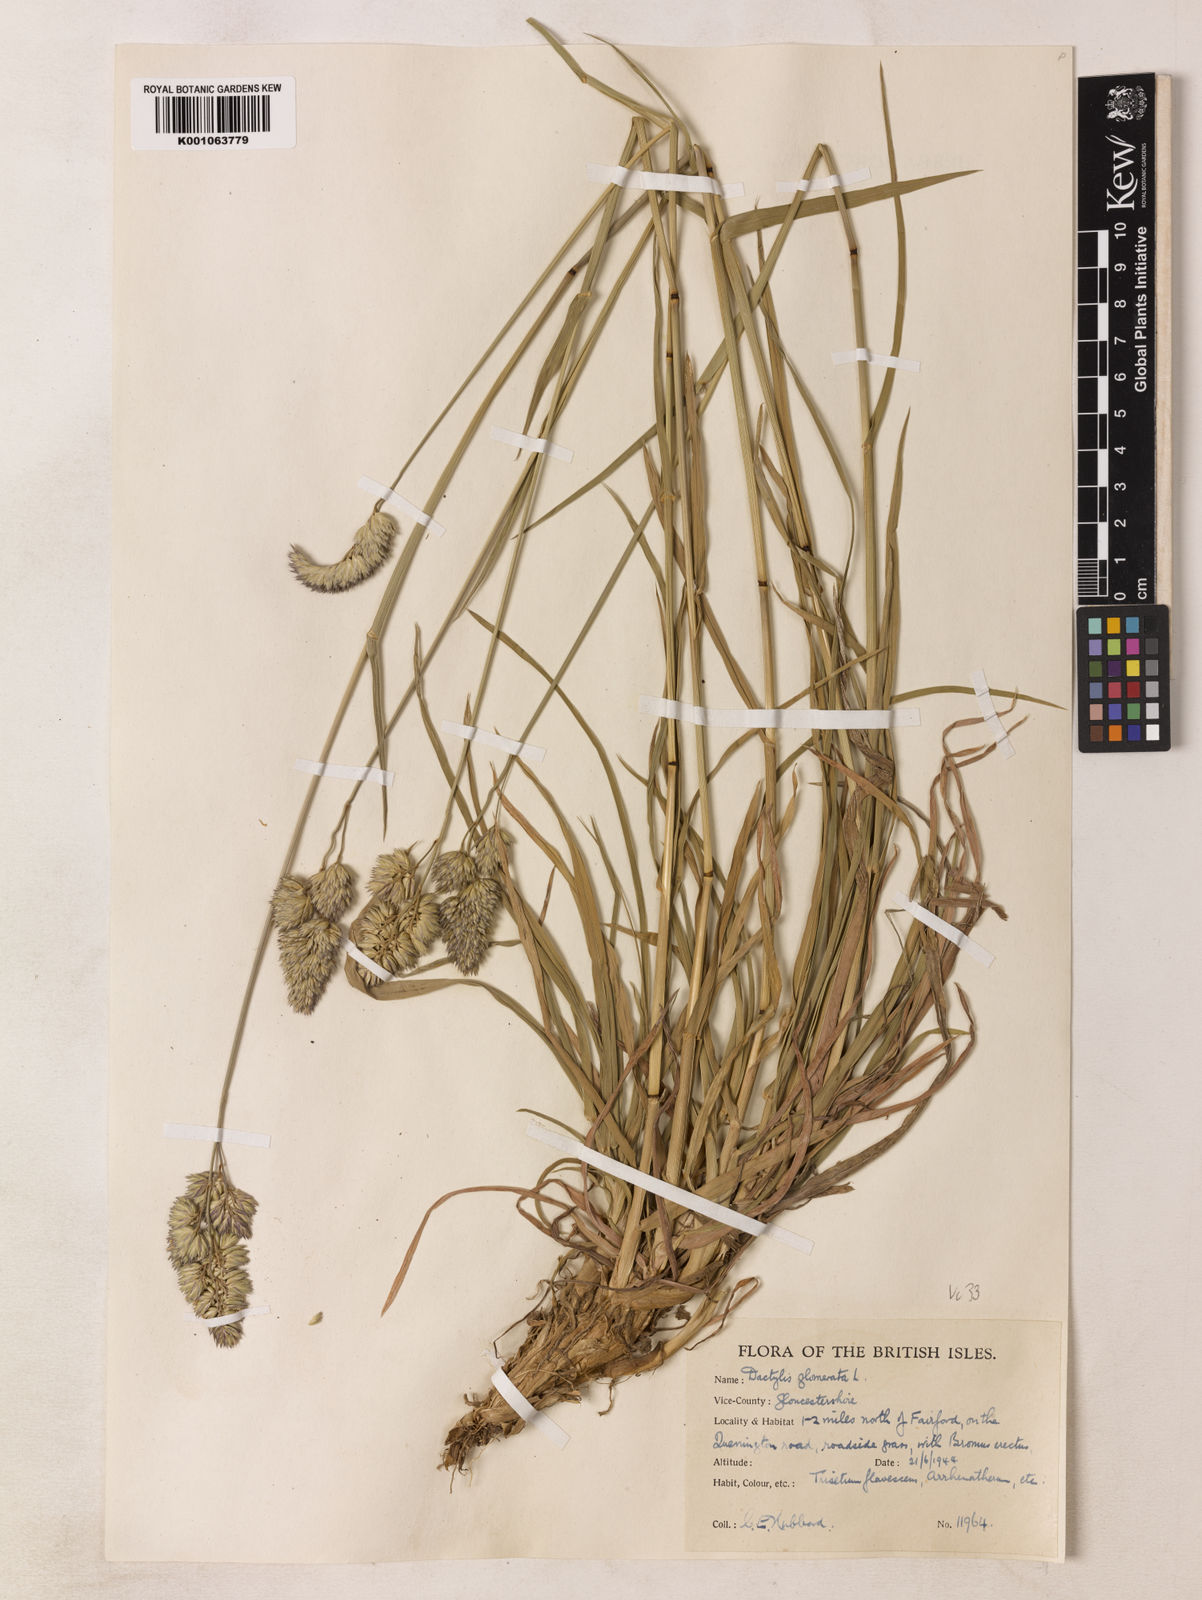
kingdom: Plantae
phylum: Tracheophyta
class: Liliopsida
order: Poales
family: Poaceae
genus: Dactylis
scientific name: Dactylis glomerata
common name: Orchardgrass
